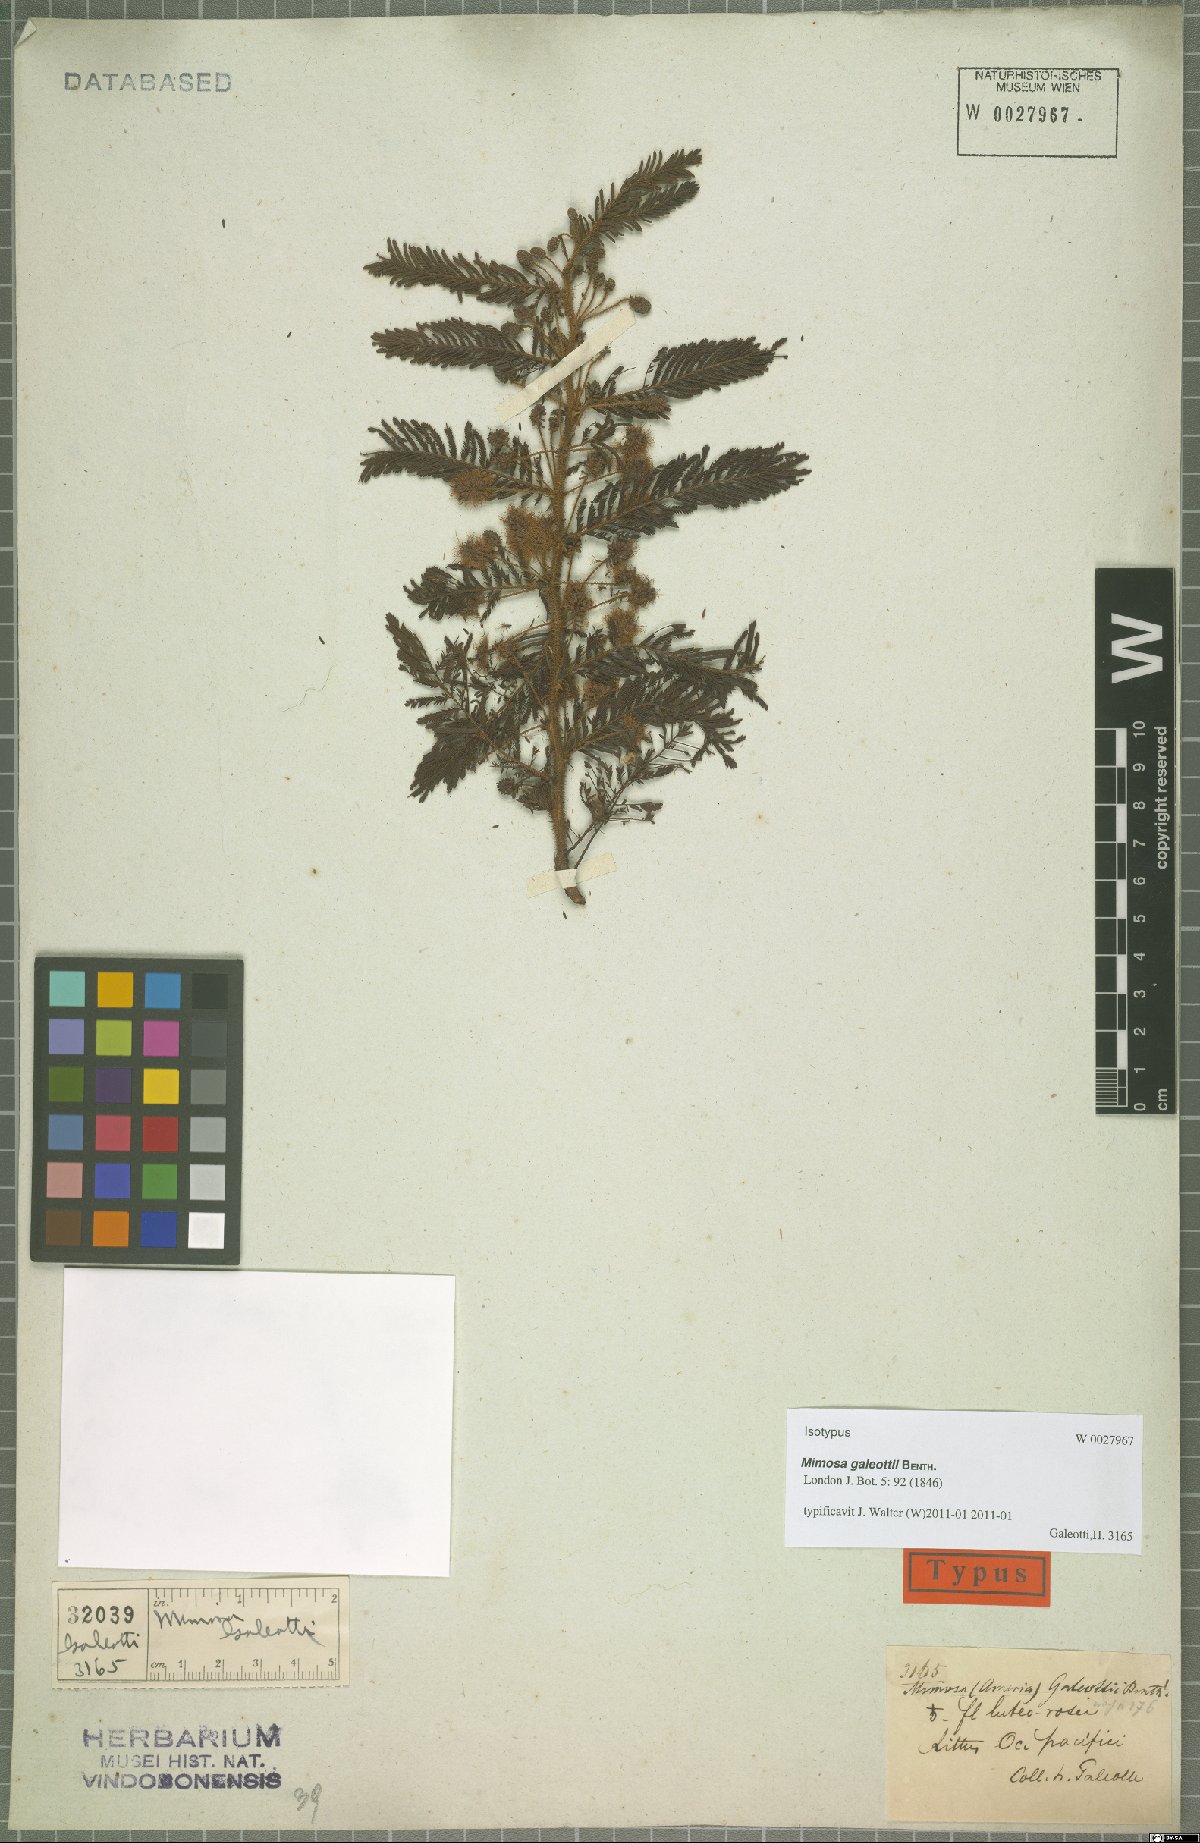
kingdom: Plantae
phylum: Tracheophyta
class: Magnoliopsida
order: Fabales
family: Fabaceae
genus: Mimosa
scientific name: Mimosa galeottii
